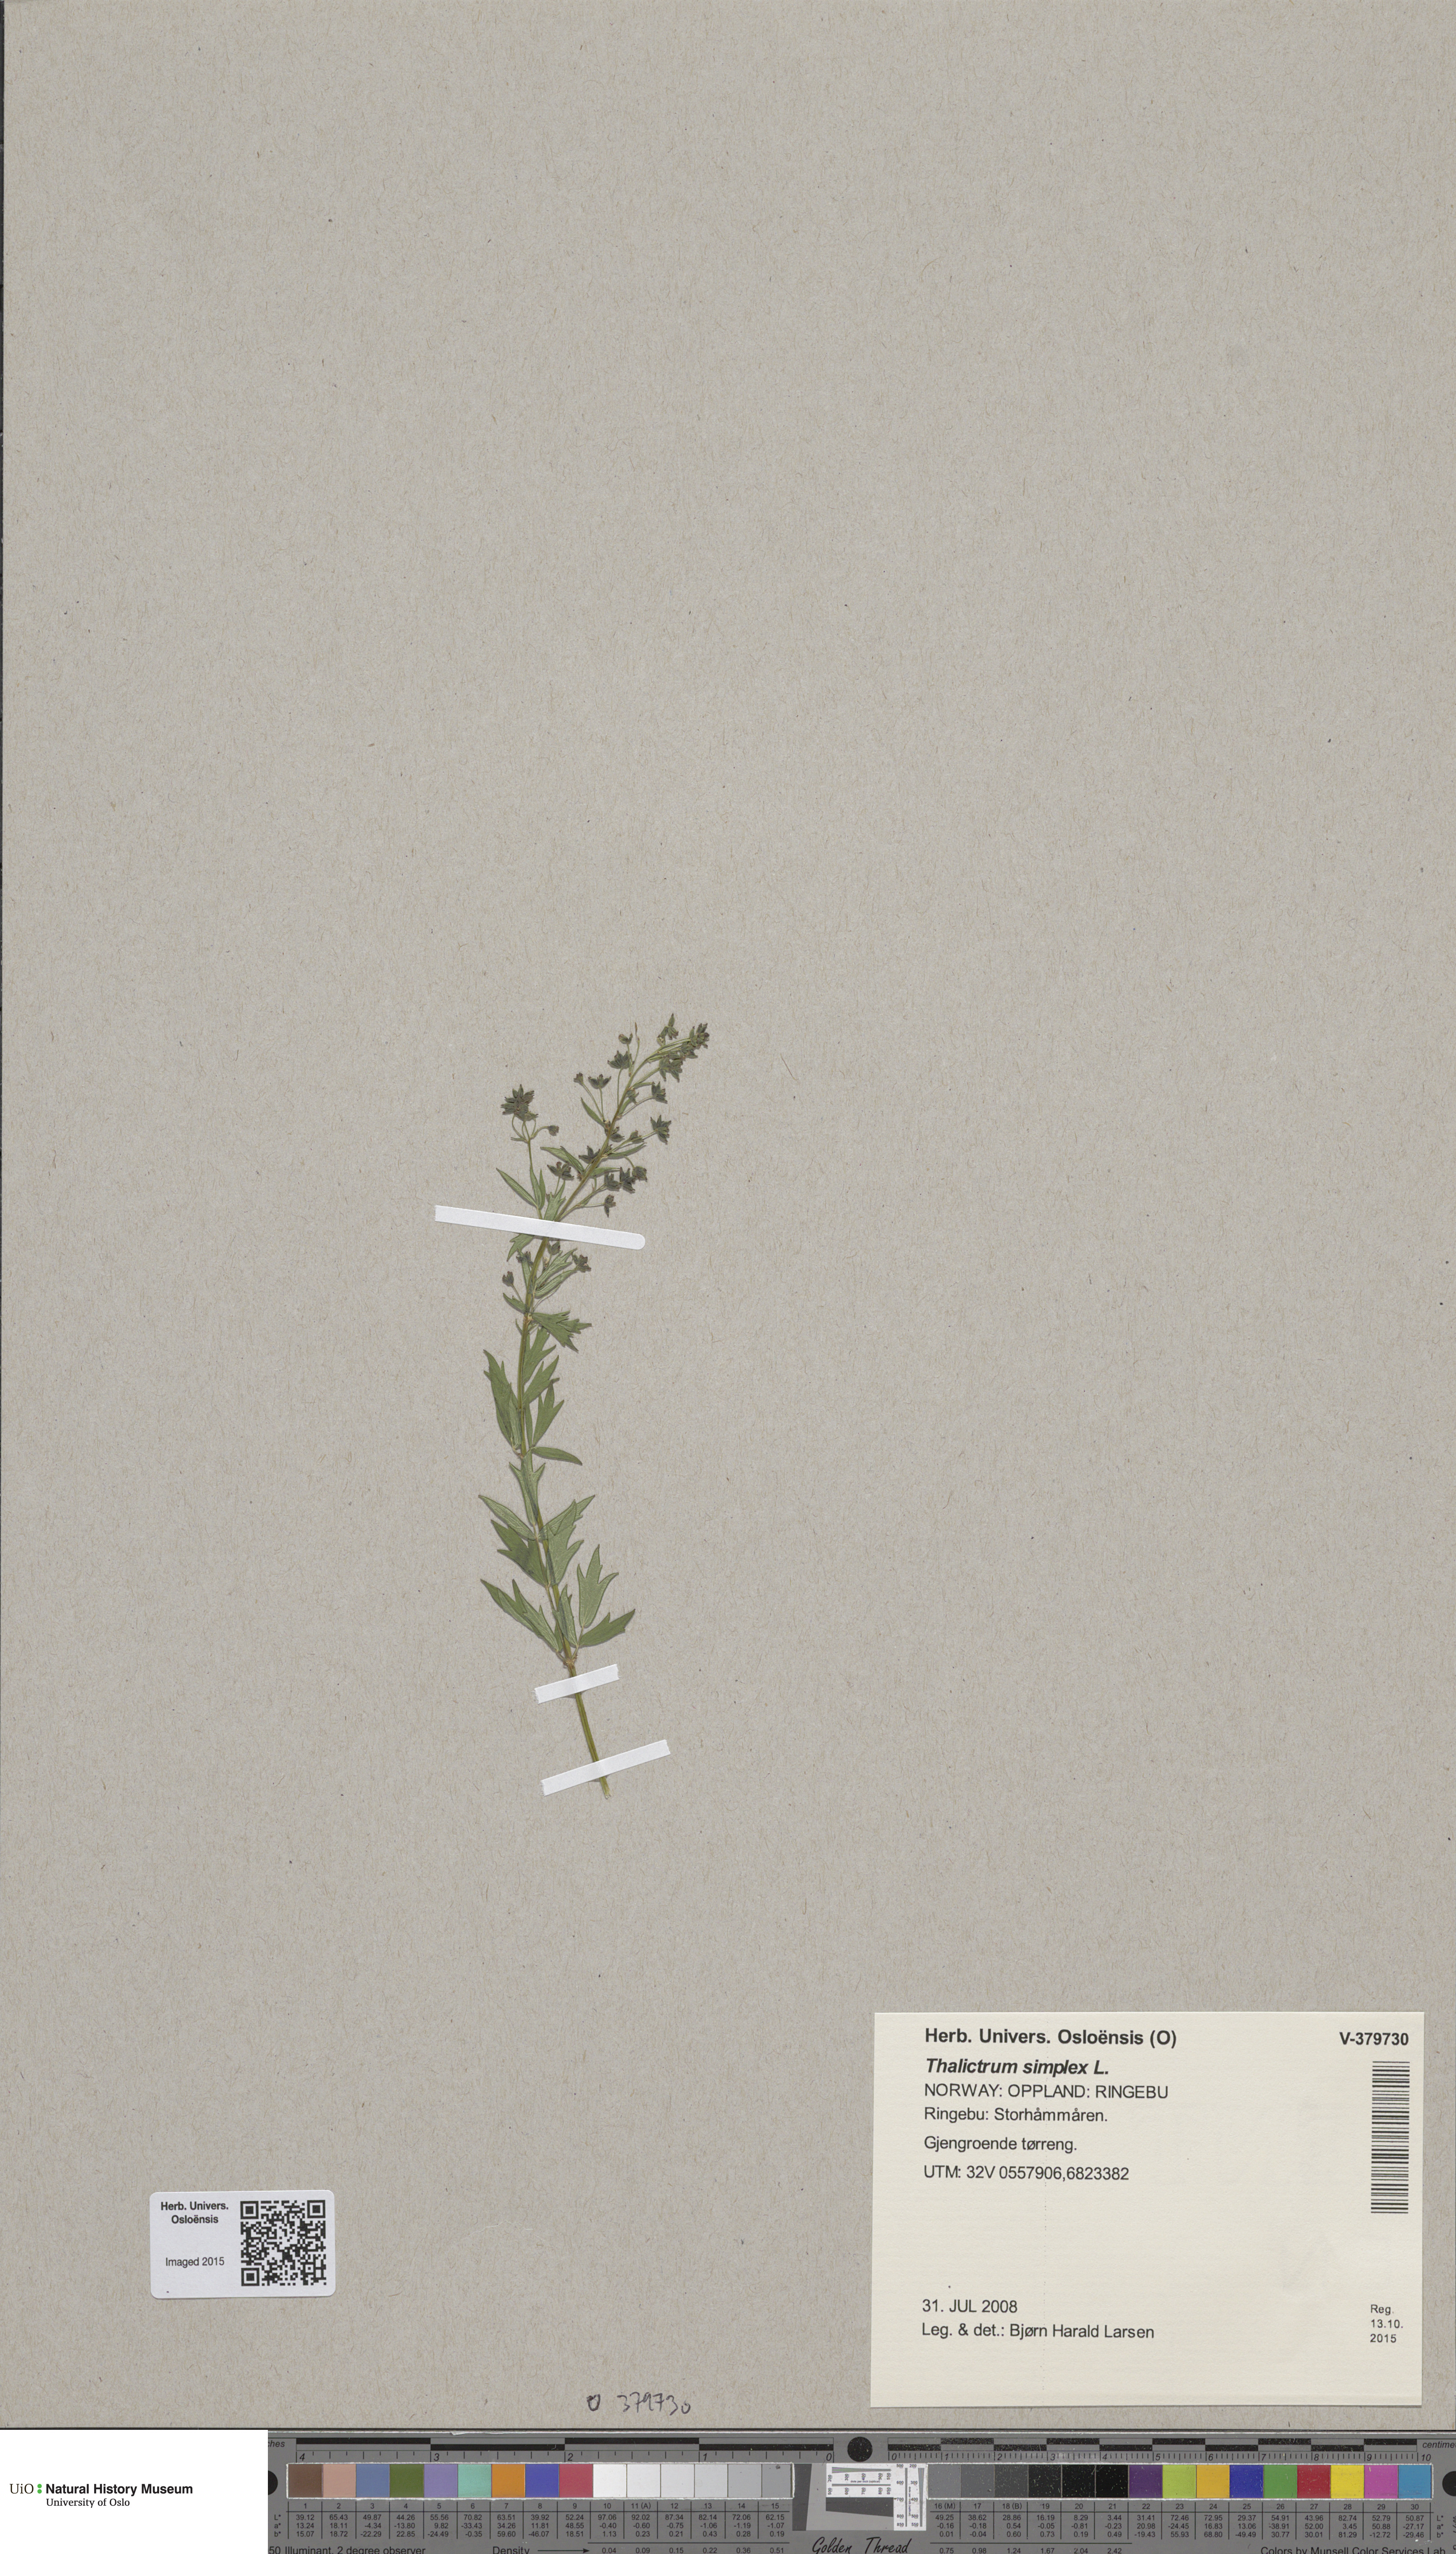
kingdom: Plantae
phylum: Tracheophyta
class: Magnoliopsida
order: Ranunculales
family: Ranunculaceae
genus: Thalictrum
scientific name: Thalictrum simplex
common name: Small meadow-rue
